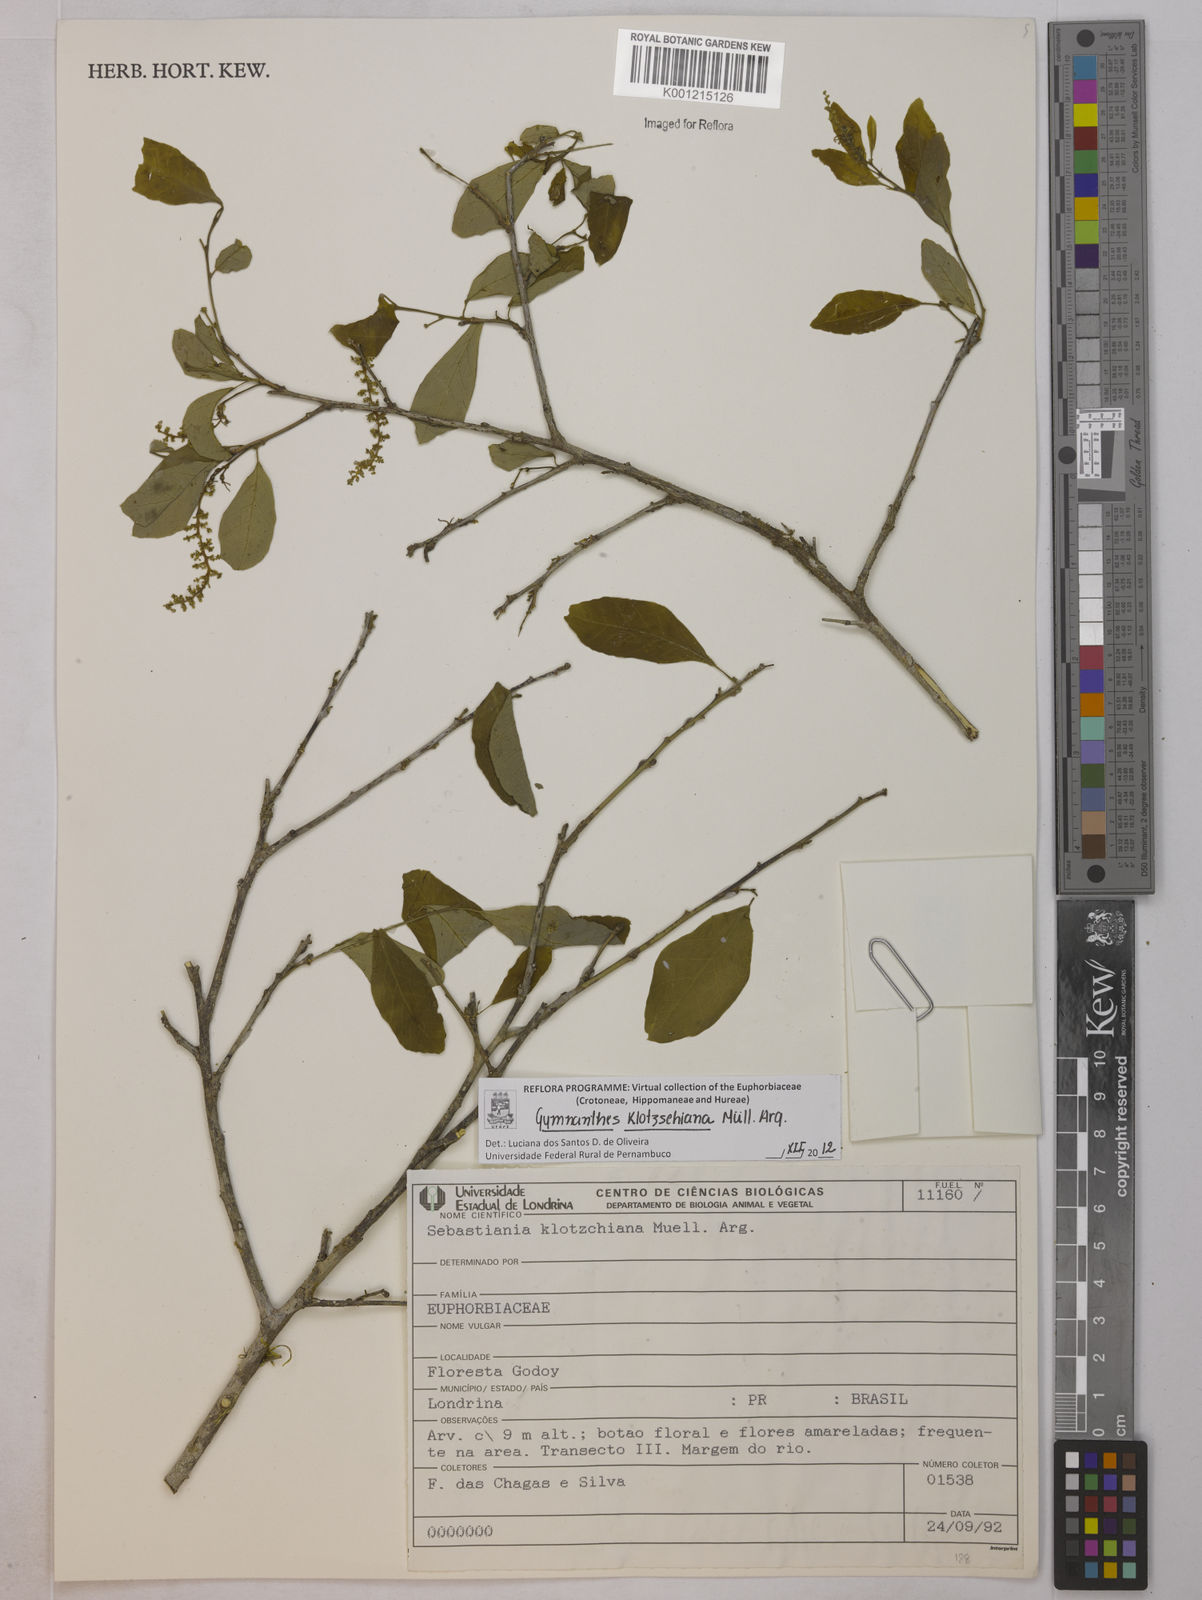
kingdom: Plantae
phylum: Tracheophyta
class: Magnoliopsida
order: Malpighiales
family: Euphorbiaceae
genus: Gymnanthes
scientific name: Gymnanthes
